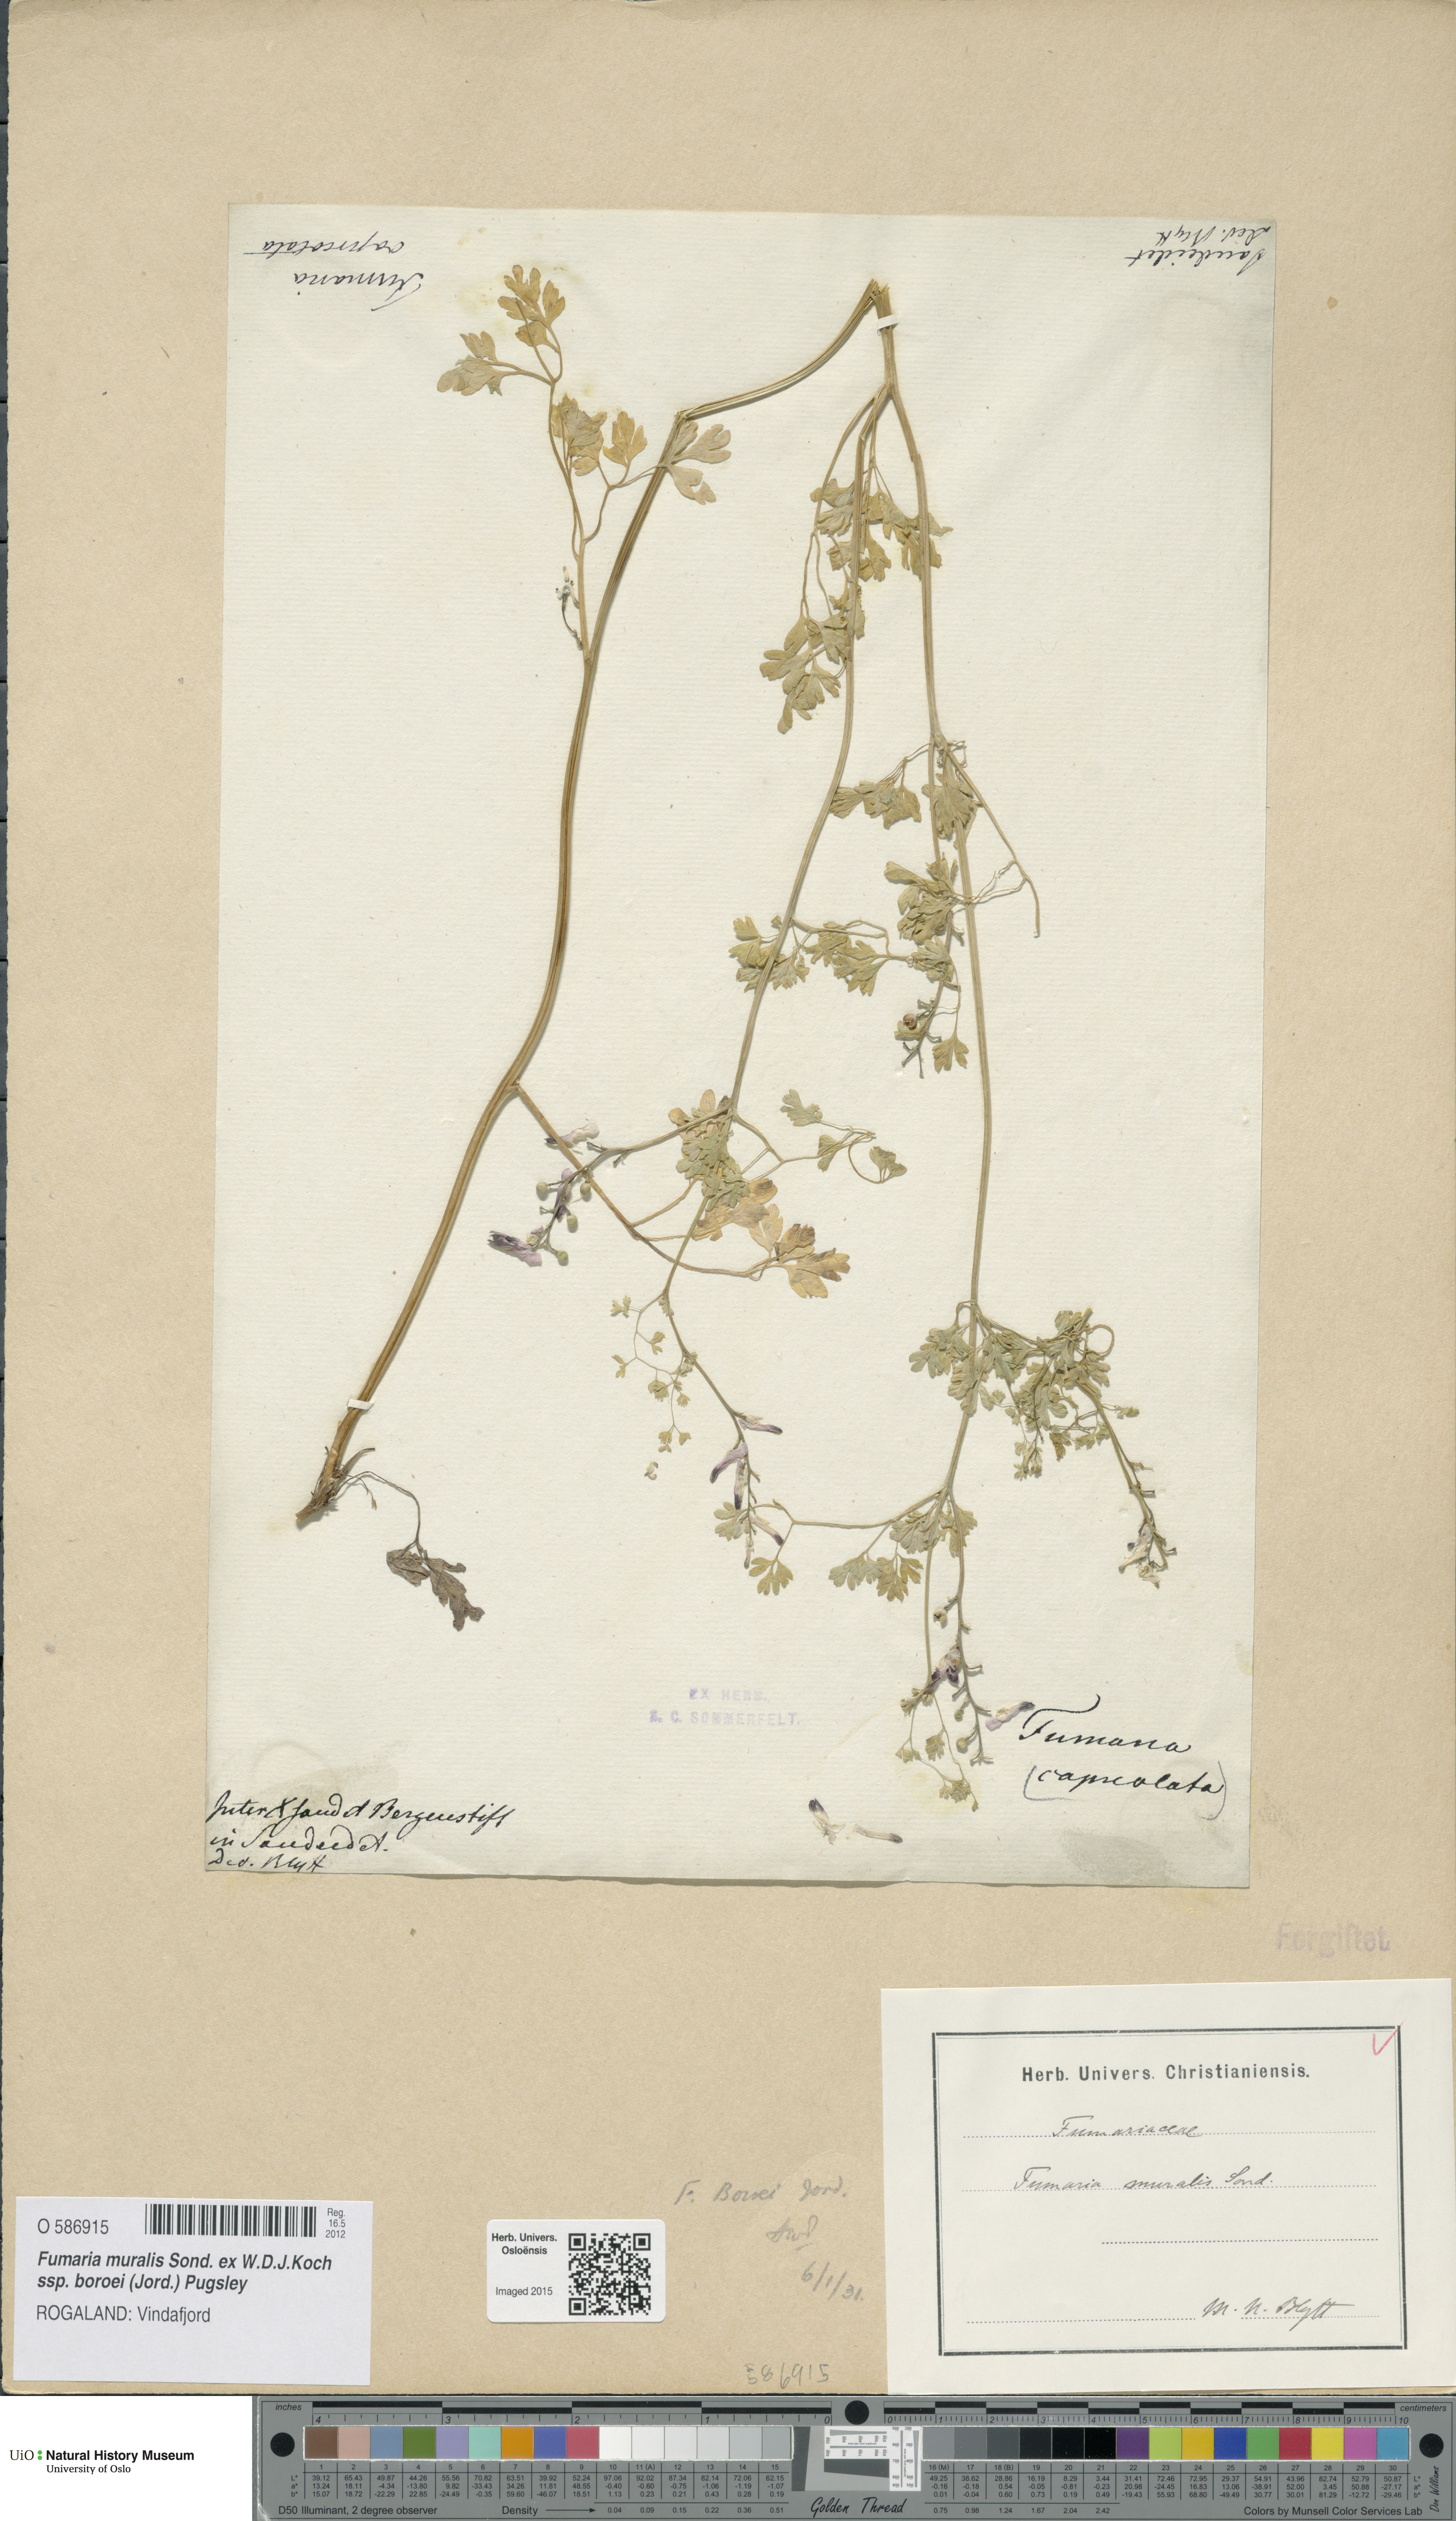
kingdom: Plantae
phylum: Tracheophyta
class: Magnoliopsida
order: Ranunculales
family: Papaveraceae
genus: Fumaria
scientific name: Fumaria muralis
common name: Common ramping-fumitory
